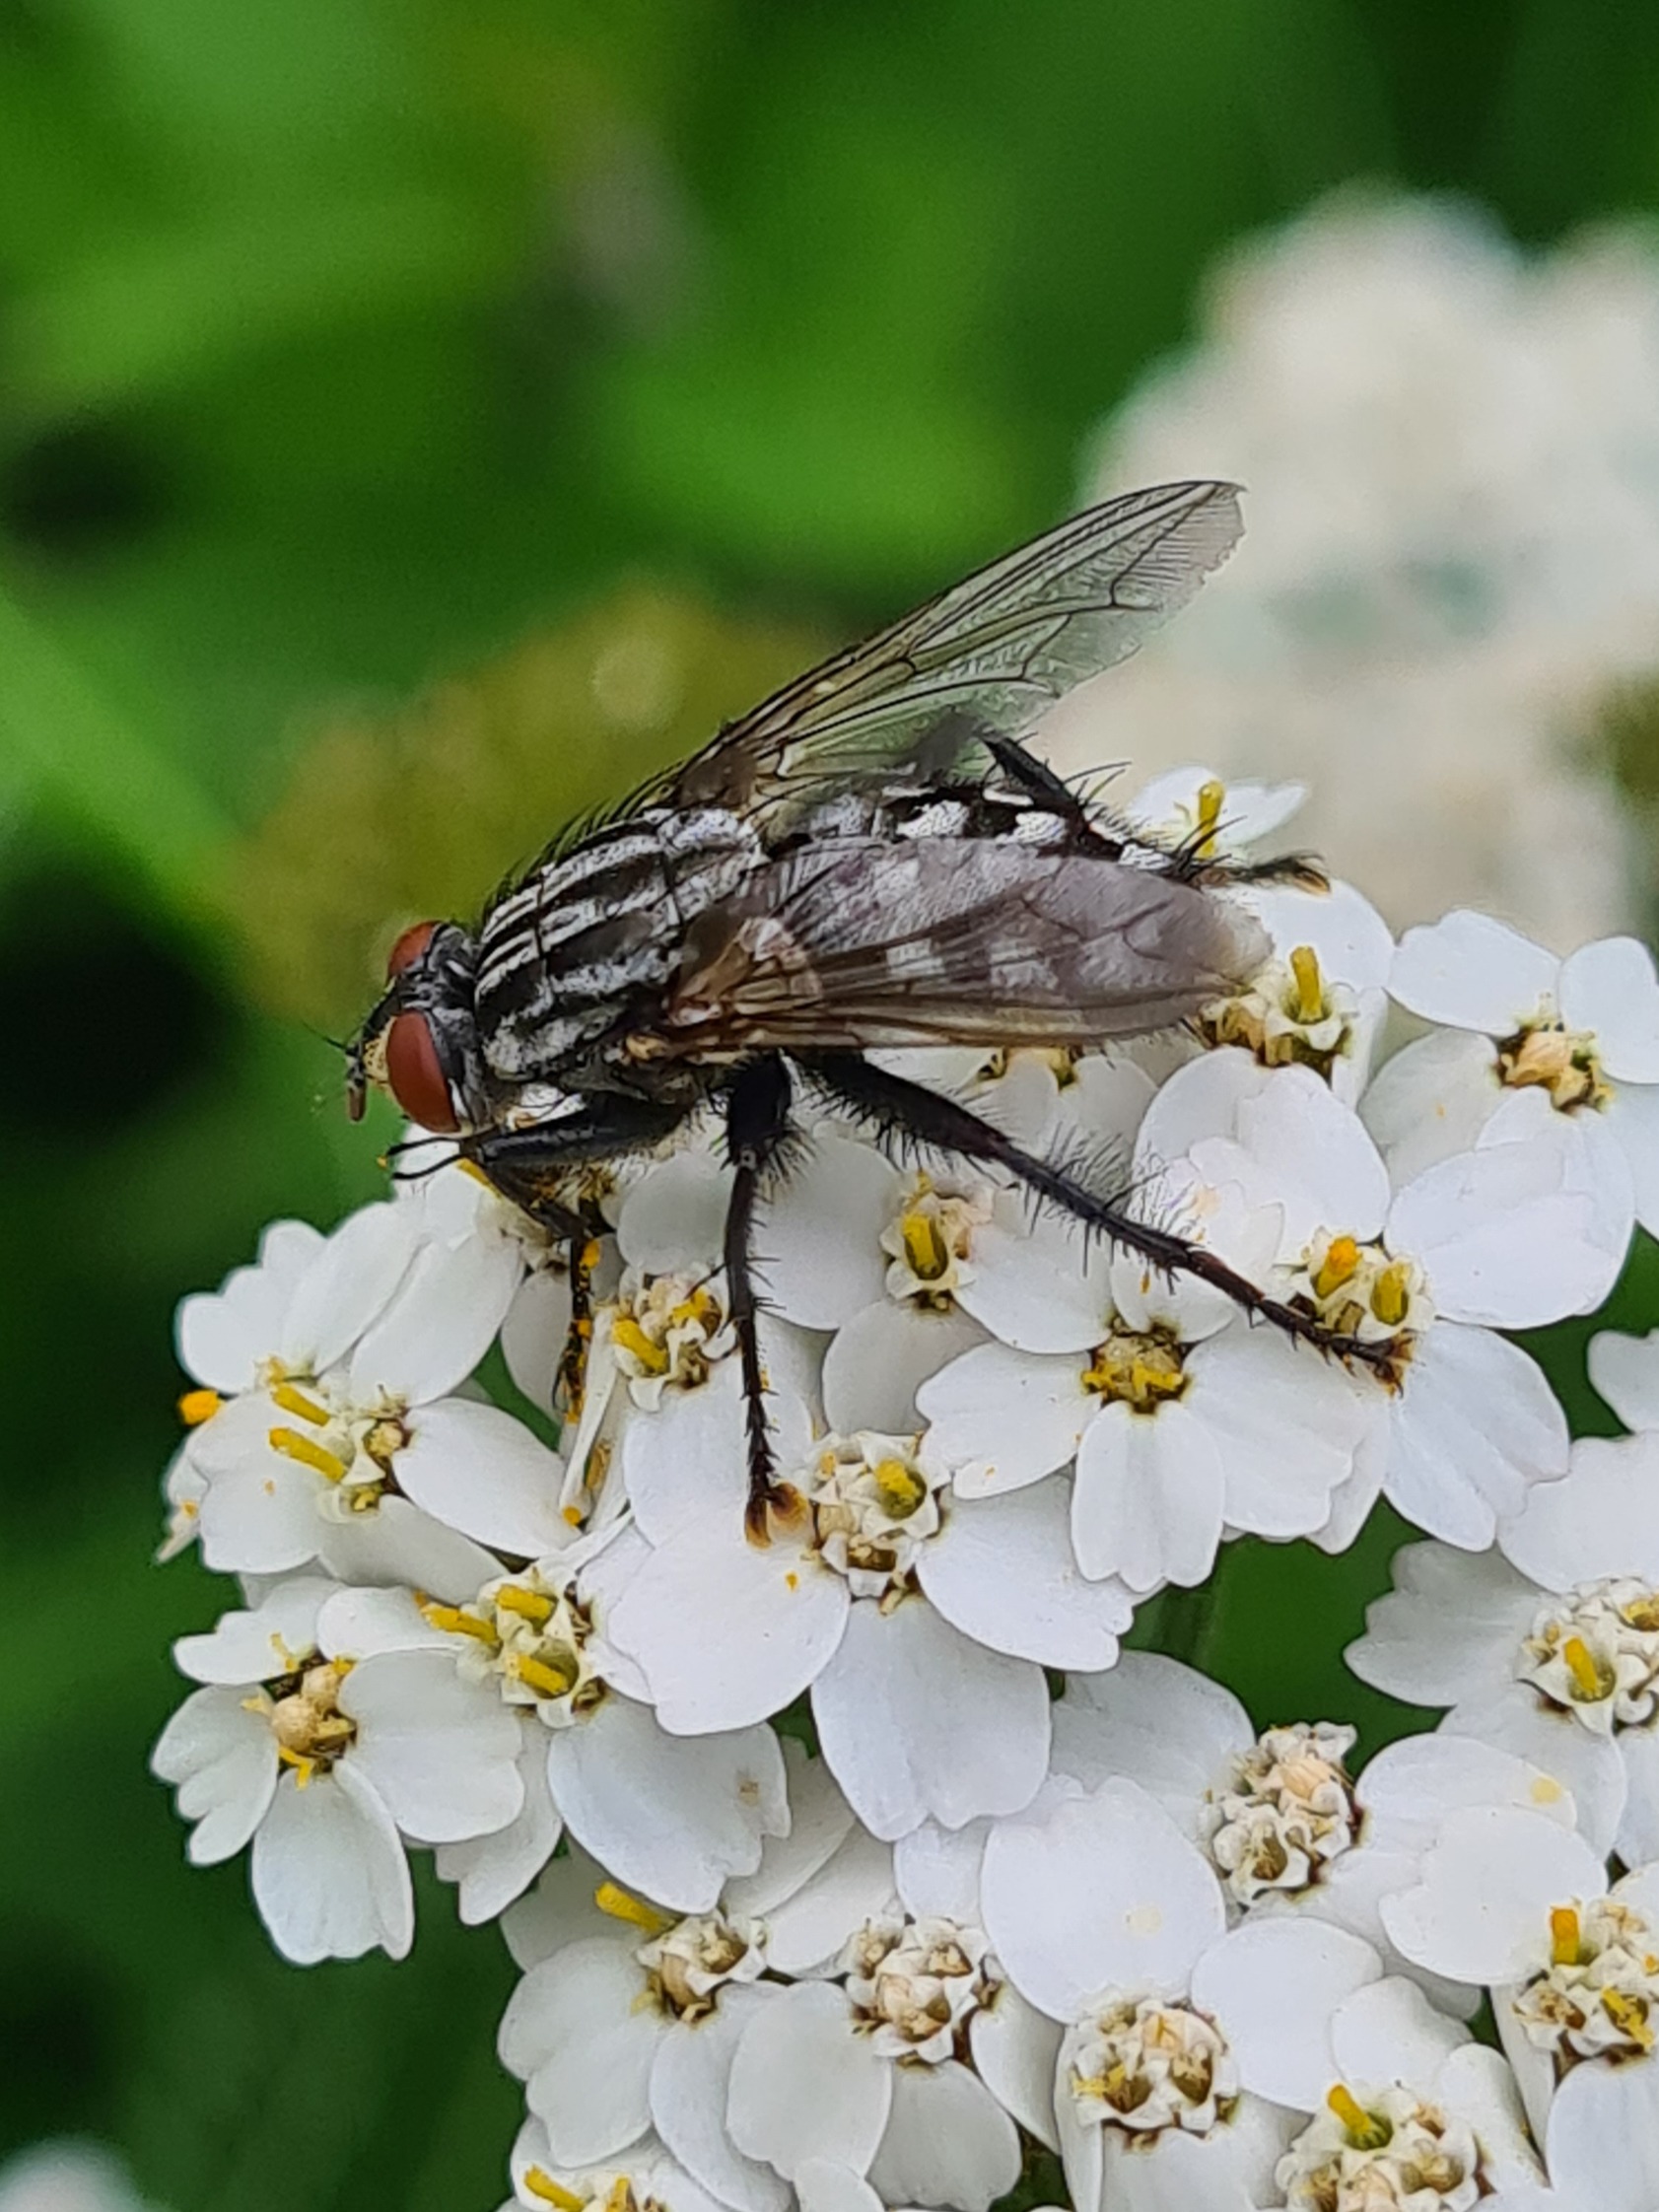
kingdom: Animalia
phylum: Arthropoda
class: Insecta
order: Diptera
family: Sarcophagidae
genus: Sarcophaga
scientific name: Sarcophaga
